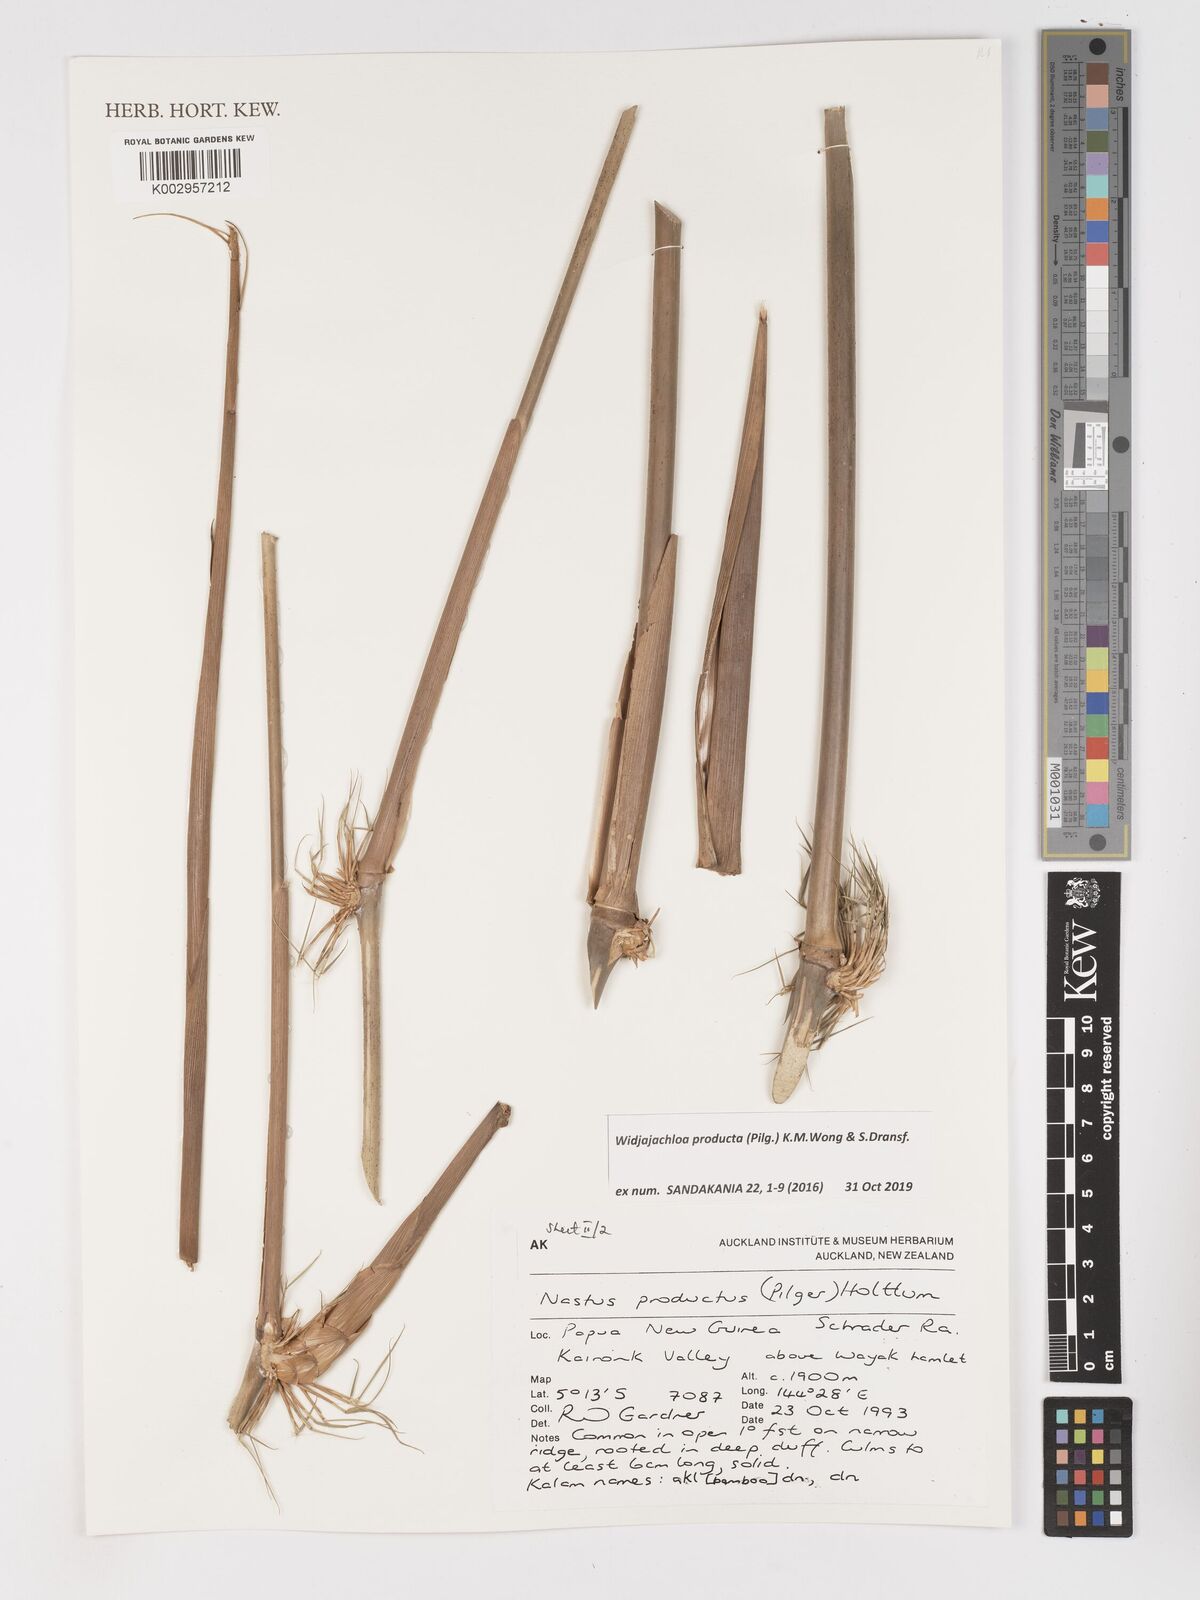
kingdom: Plantae
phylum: Tracheophyta
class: Liliopsida
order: Poales
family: Poaceae
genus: Widjajachloa
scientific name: Widjajachloa producta
